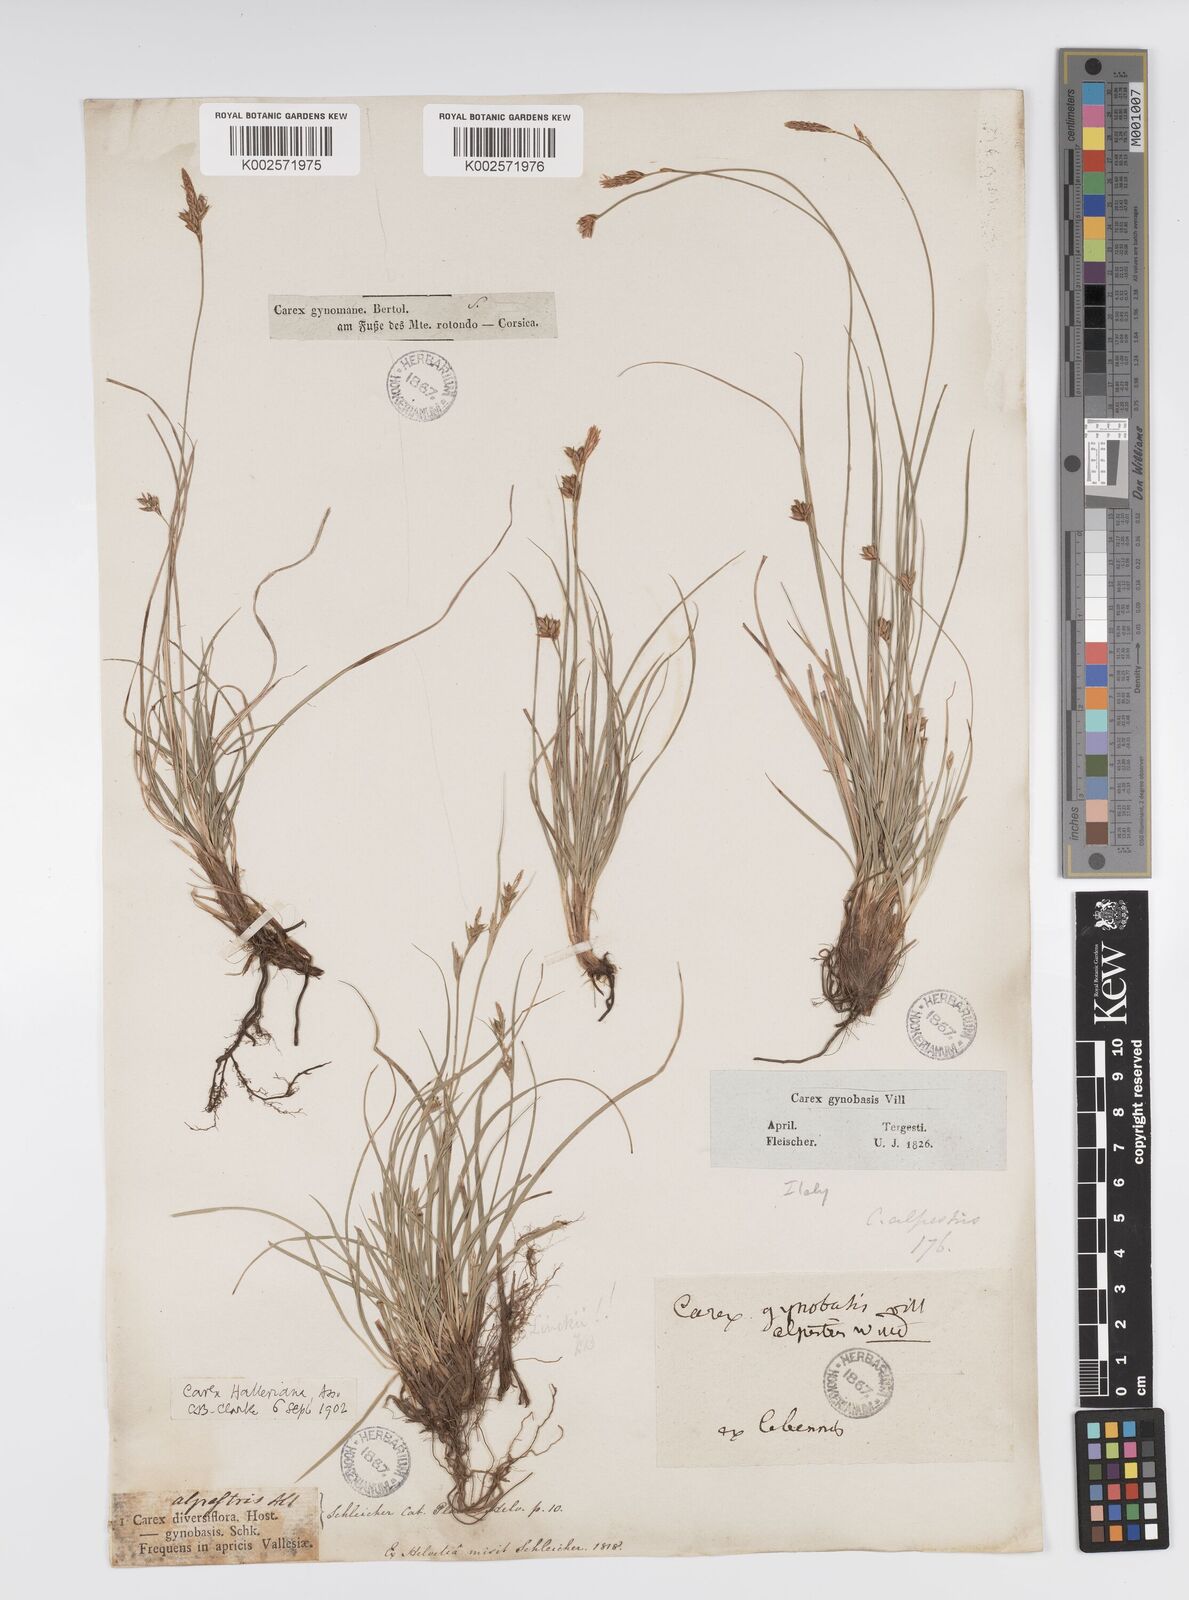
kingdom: Plantae
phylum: Tracheophyta
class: Liliopsida
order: Poales
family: Cyperaceae
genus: Carex
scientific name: Carex halleriana
